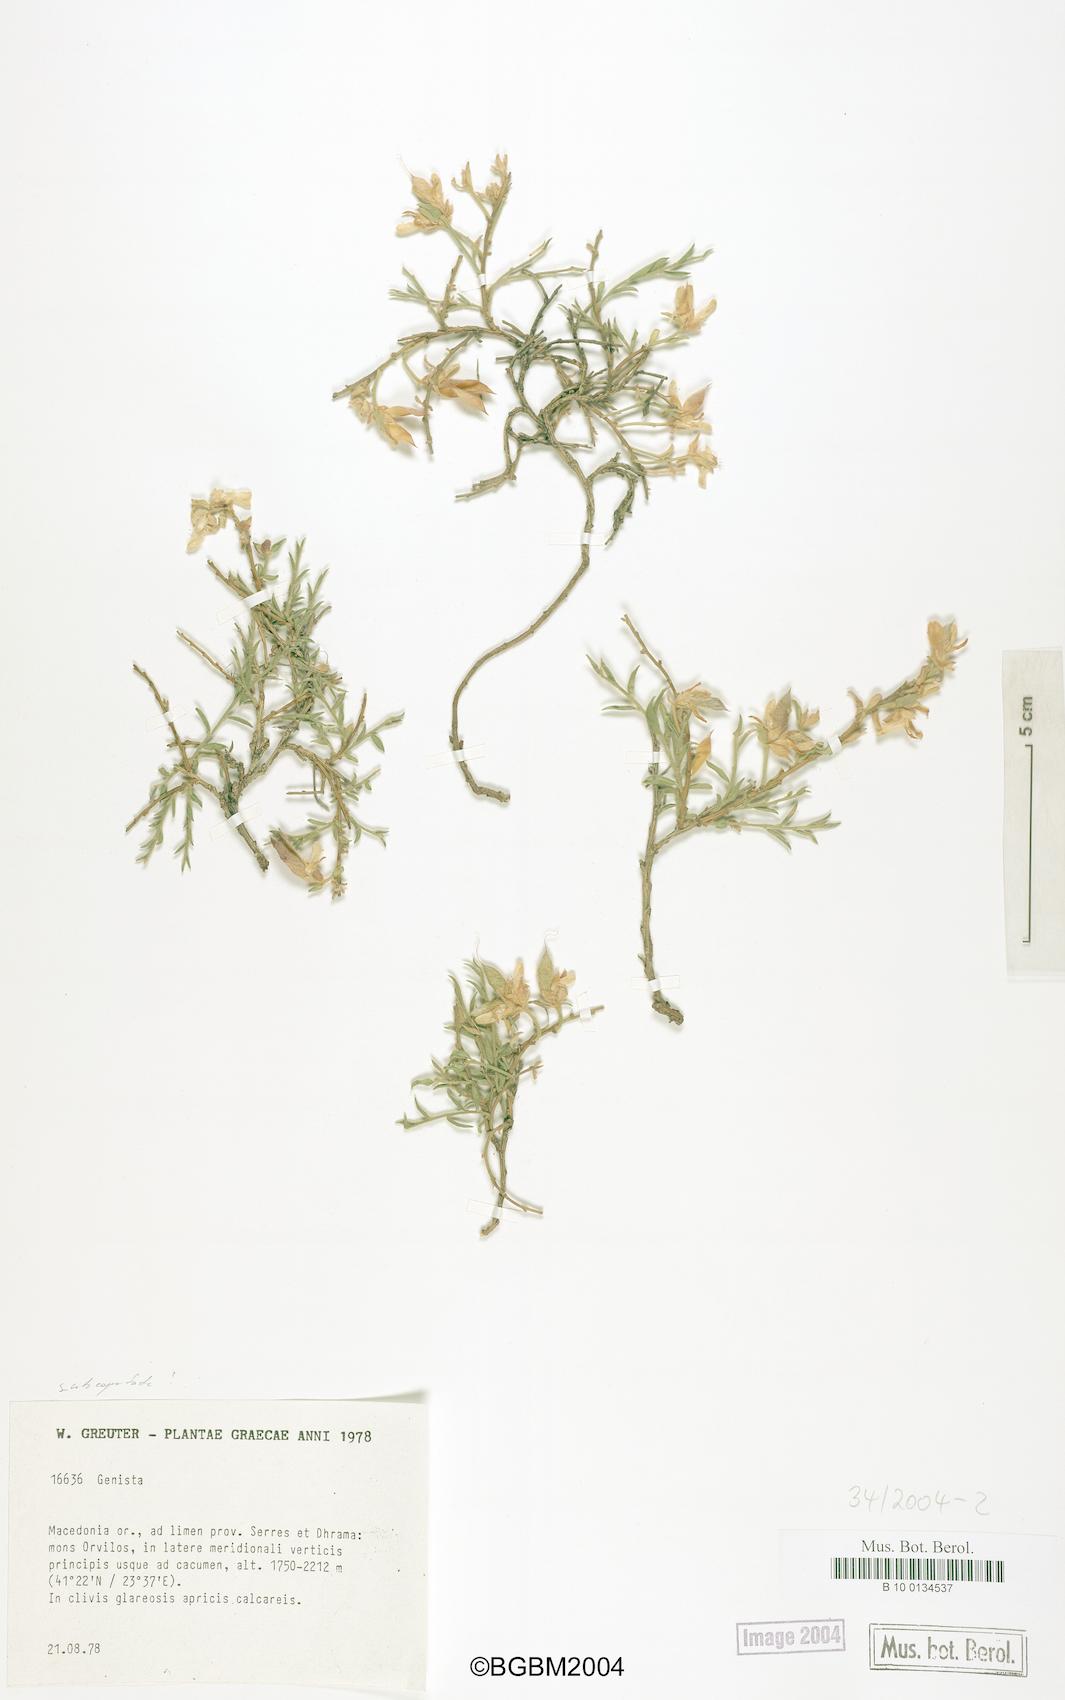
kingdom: Plantae
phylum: Tracheophyta
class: Magnoliopsida
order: Fabales
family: Fabaceae
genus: Genista
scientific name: Genista
